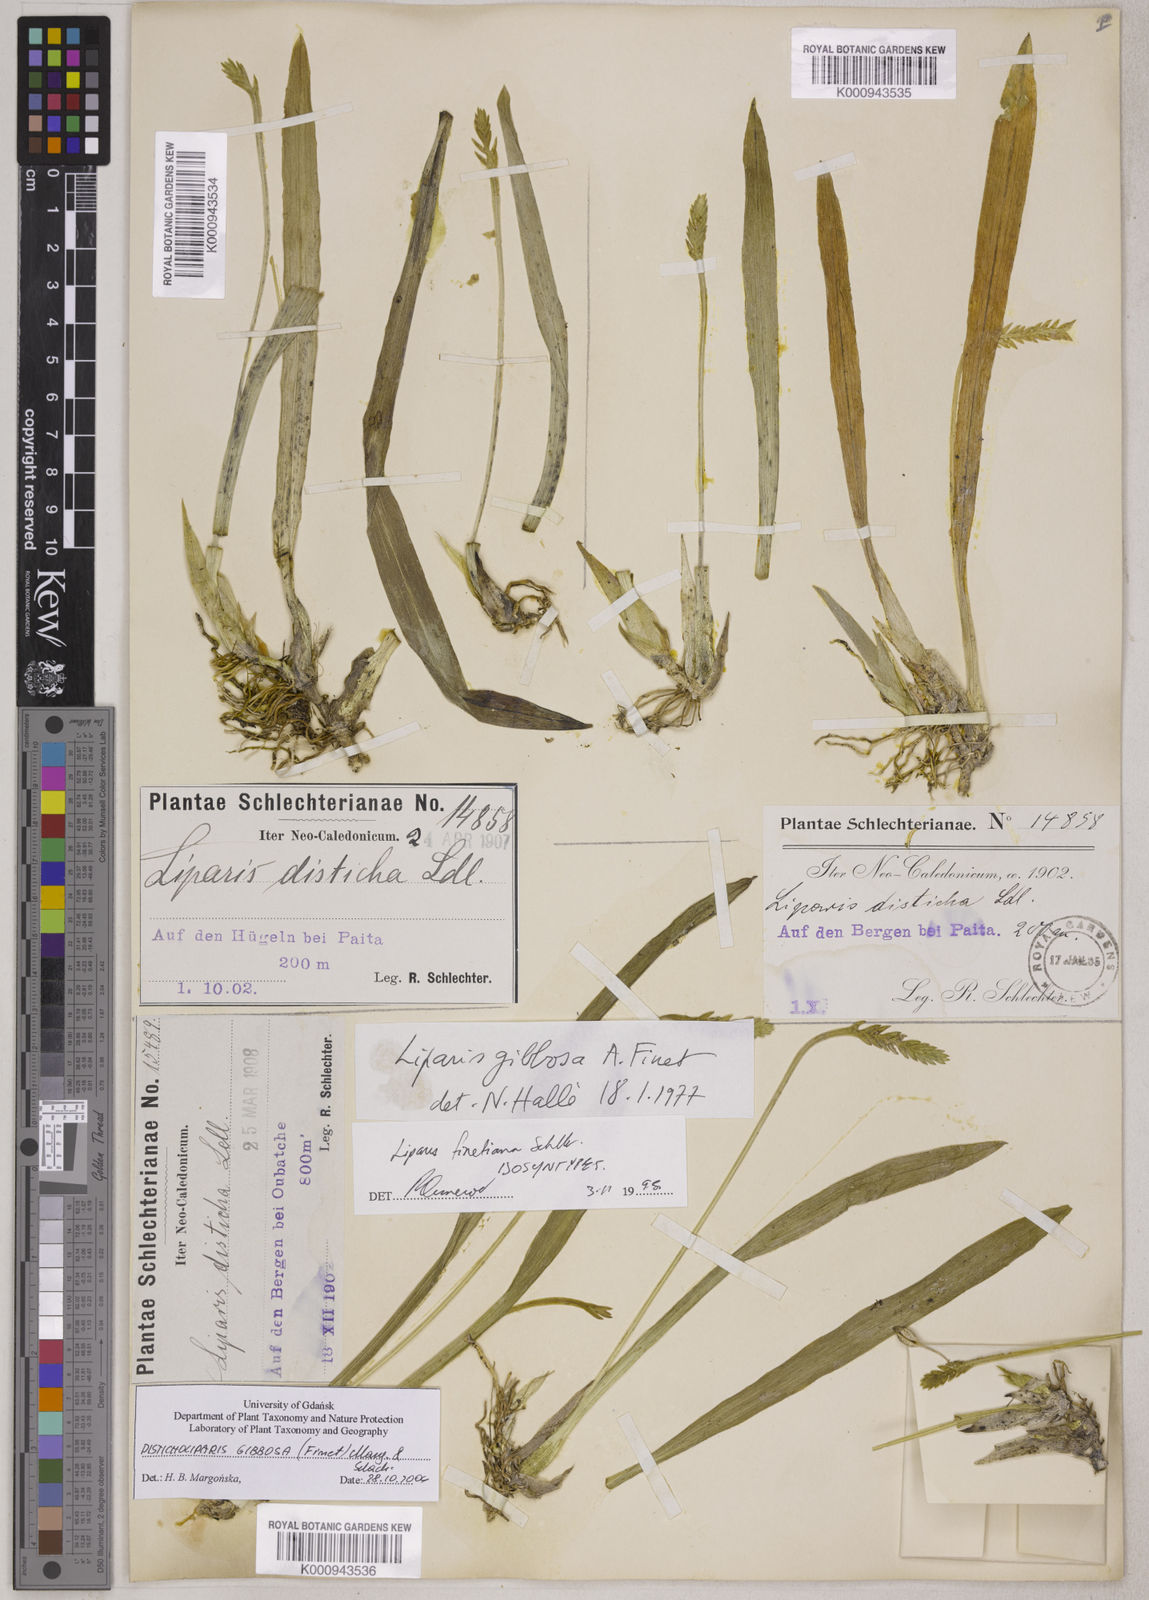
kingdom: Plantae
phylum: Tracheophyta
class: Liliopsida
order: Asparagales
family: Orchidaceae
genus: Stichorkis
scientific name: Stichorkis distichis
